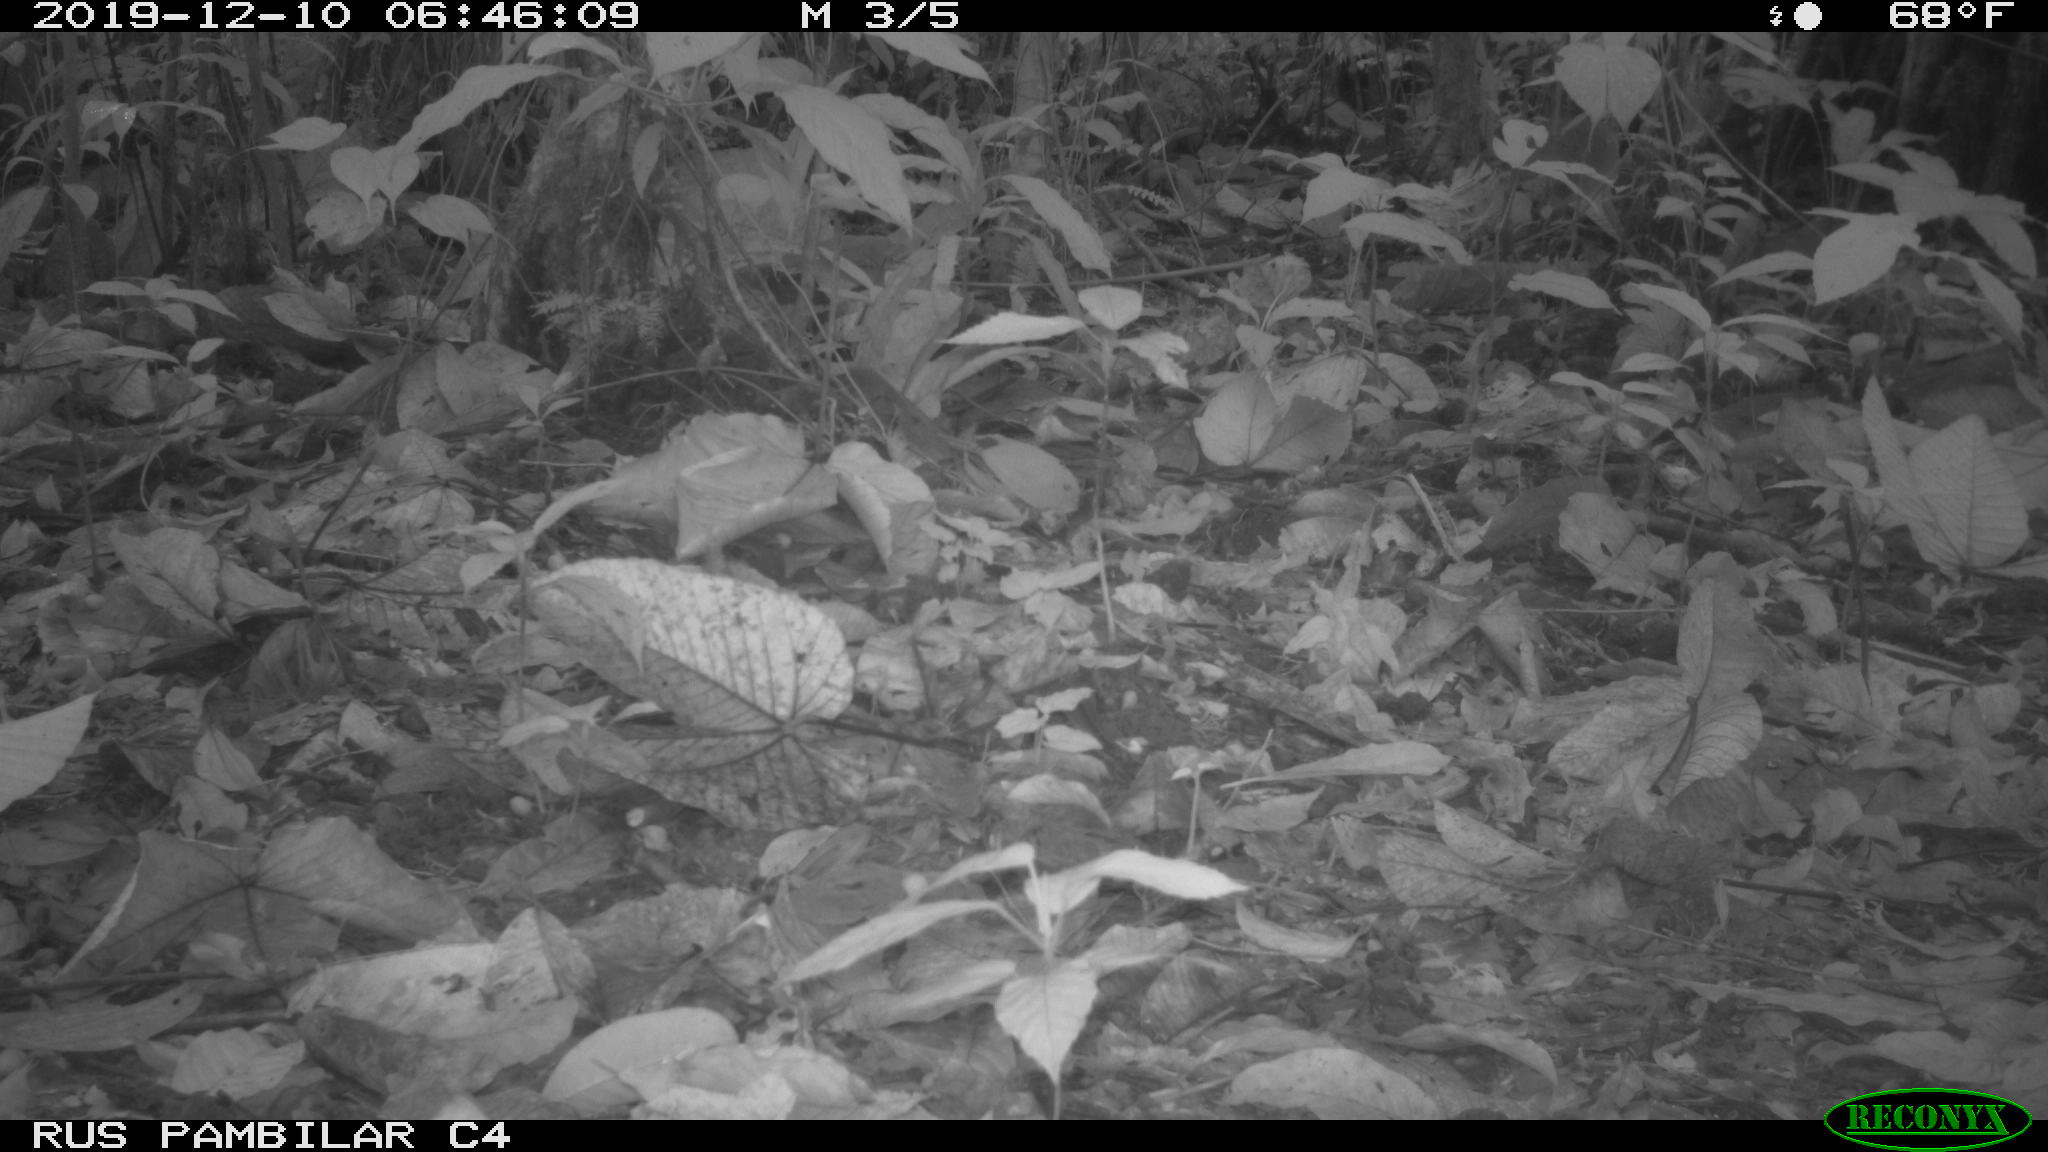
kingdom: Animalia
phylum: Chordata
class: Mammalia
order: Rodentia
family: Dasyproctidae
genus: Dasyprocta
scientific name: Dasyprocta punctata
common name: Central american agouti
